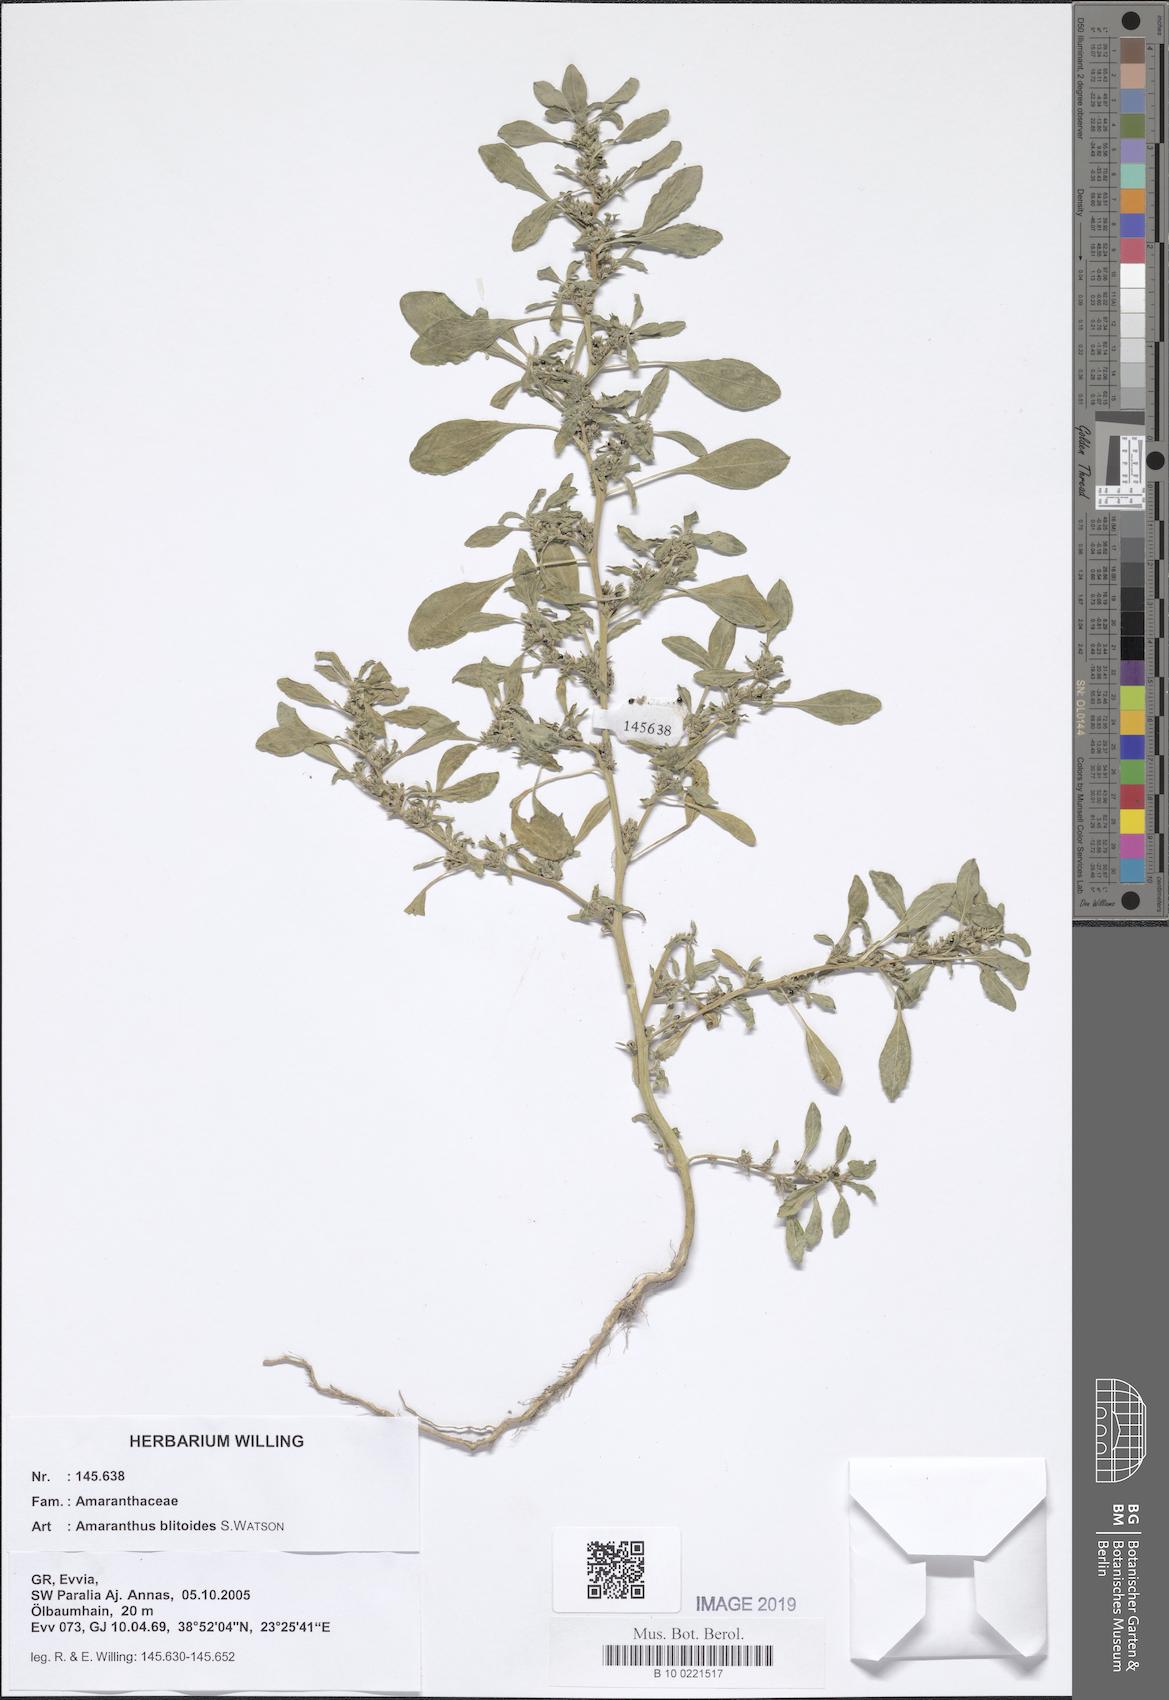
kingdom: Plantae
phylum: Tracheophyta
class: Magnoliopsida
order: Caryophyllales
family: Amaranthaceae
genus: Amaranthus
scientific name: Amaranthus blitoides
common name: Prostrate pigweed
